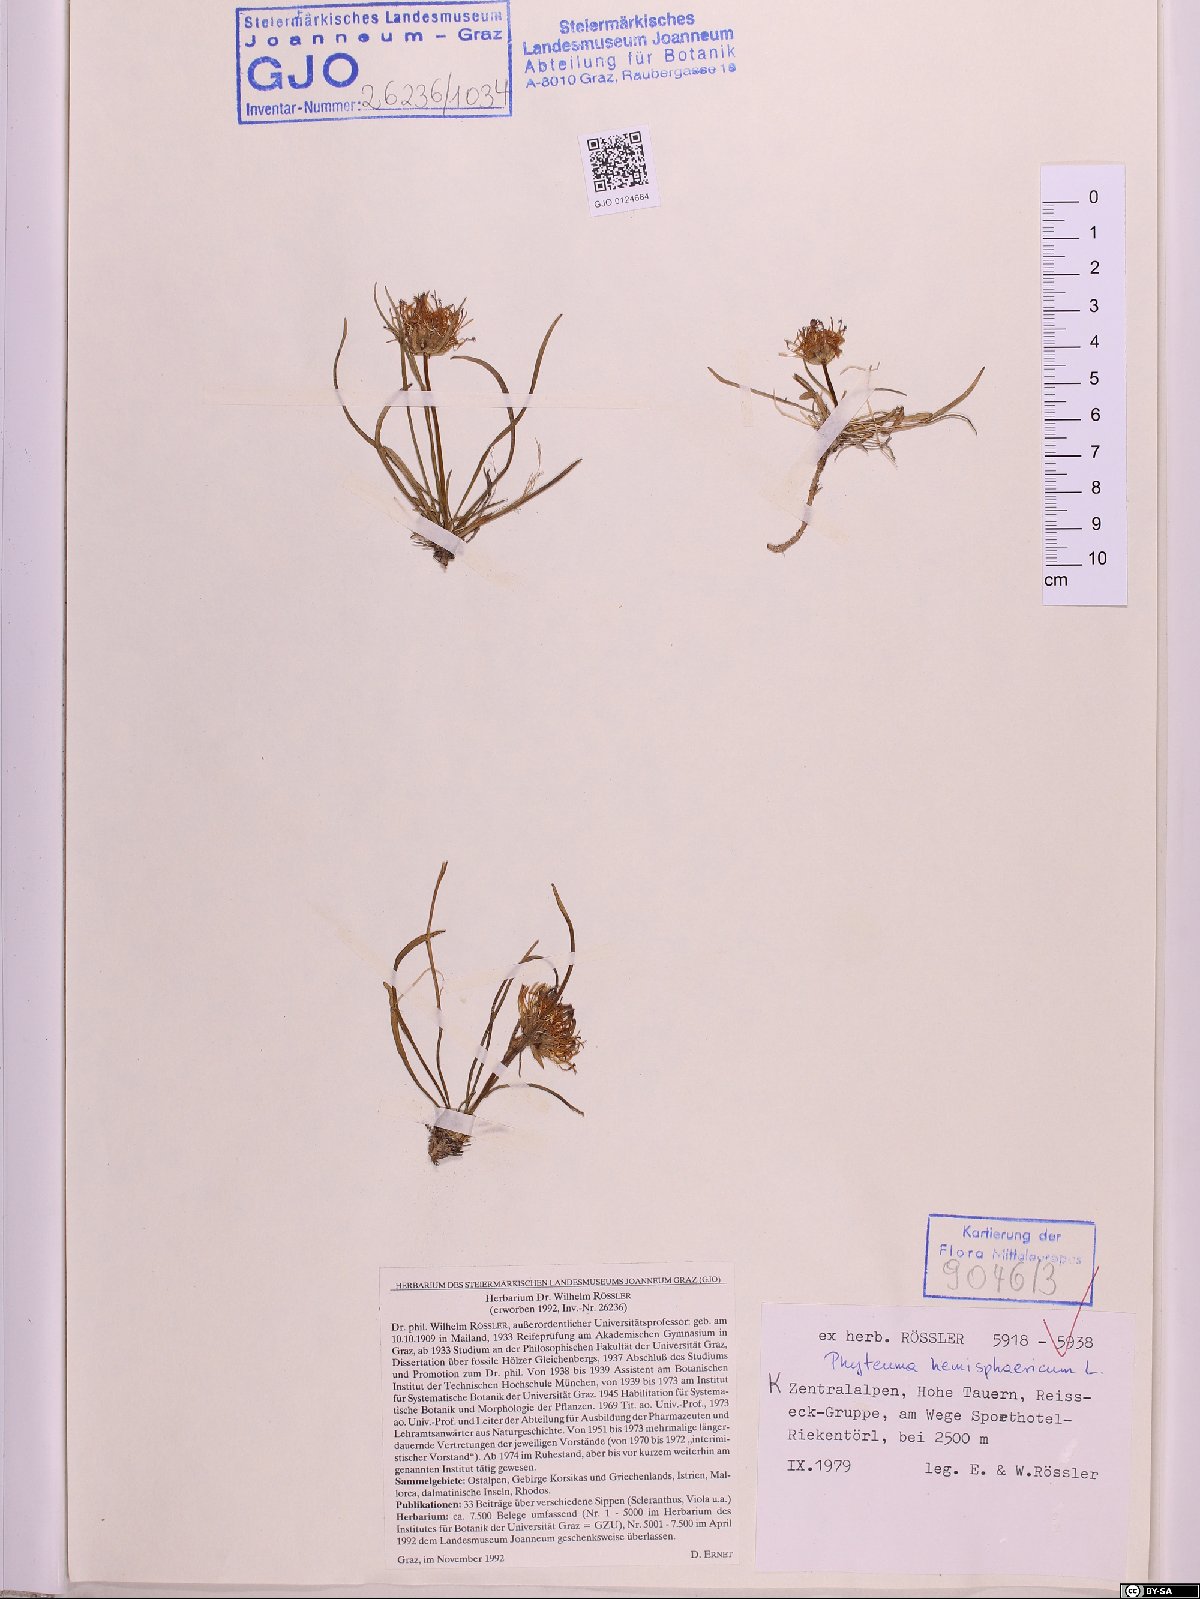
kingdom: Plantae
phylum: Tracheophyta
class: Magnoliopsida
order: Asterales
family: Campanulaceae
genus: Phyteuma
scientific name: Phyteuma hemisphaericum
